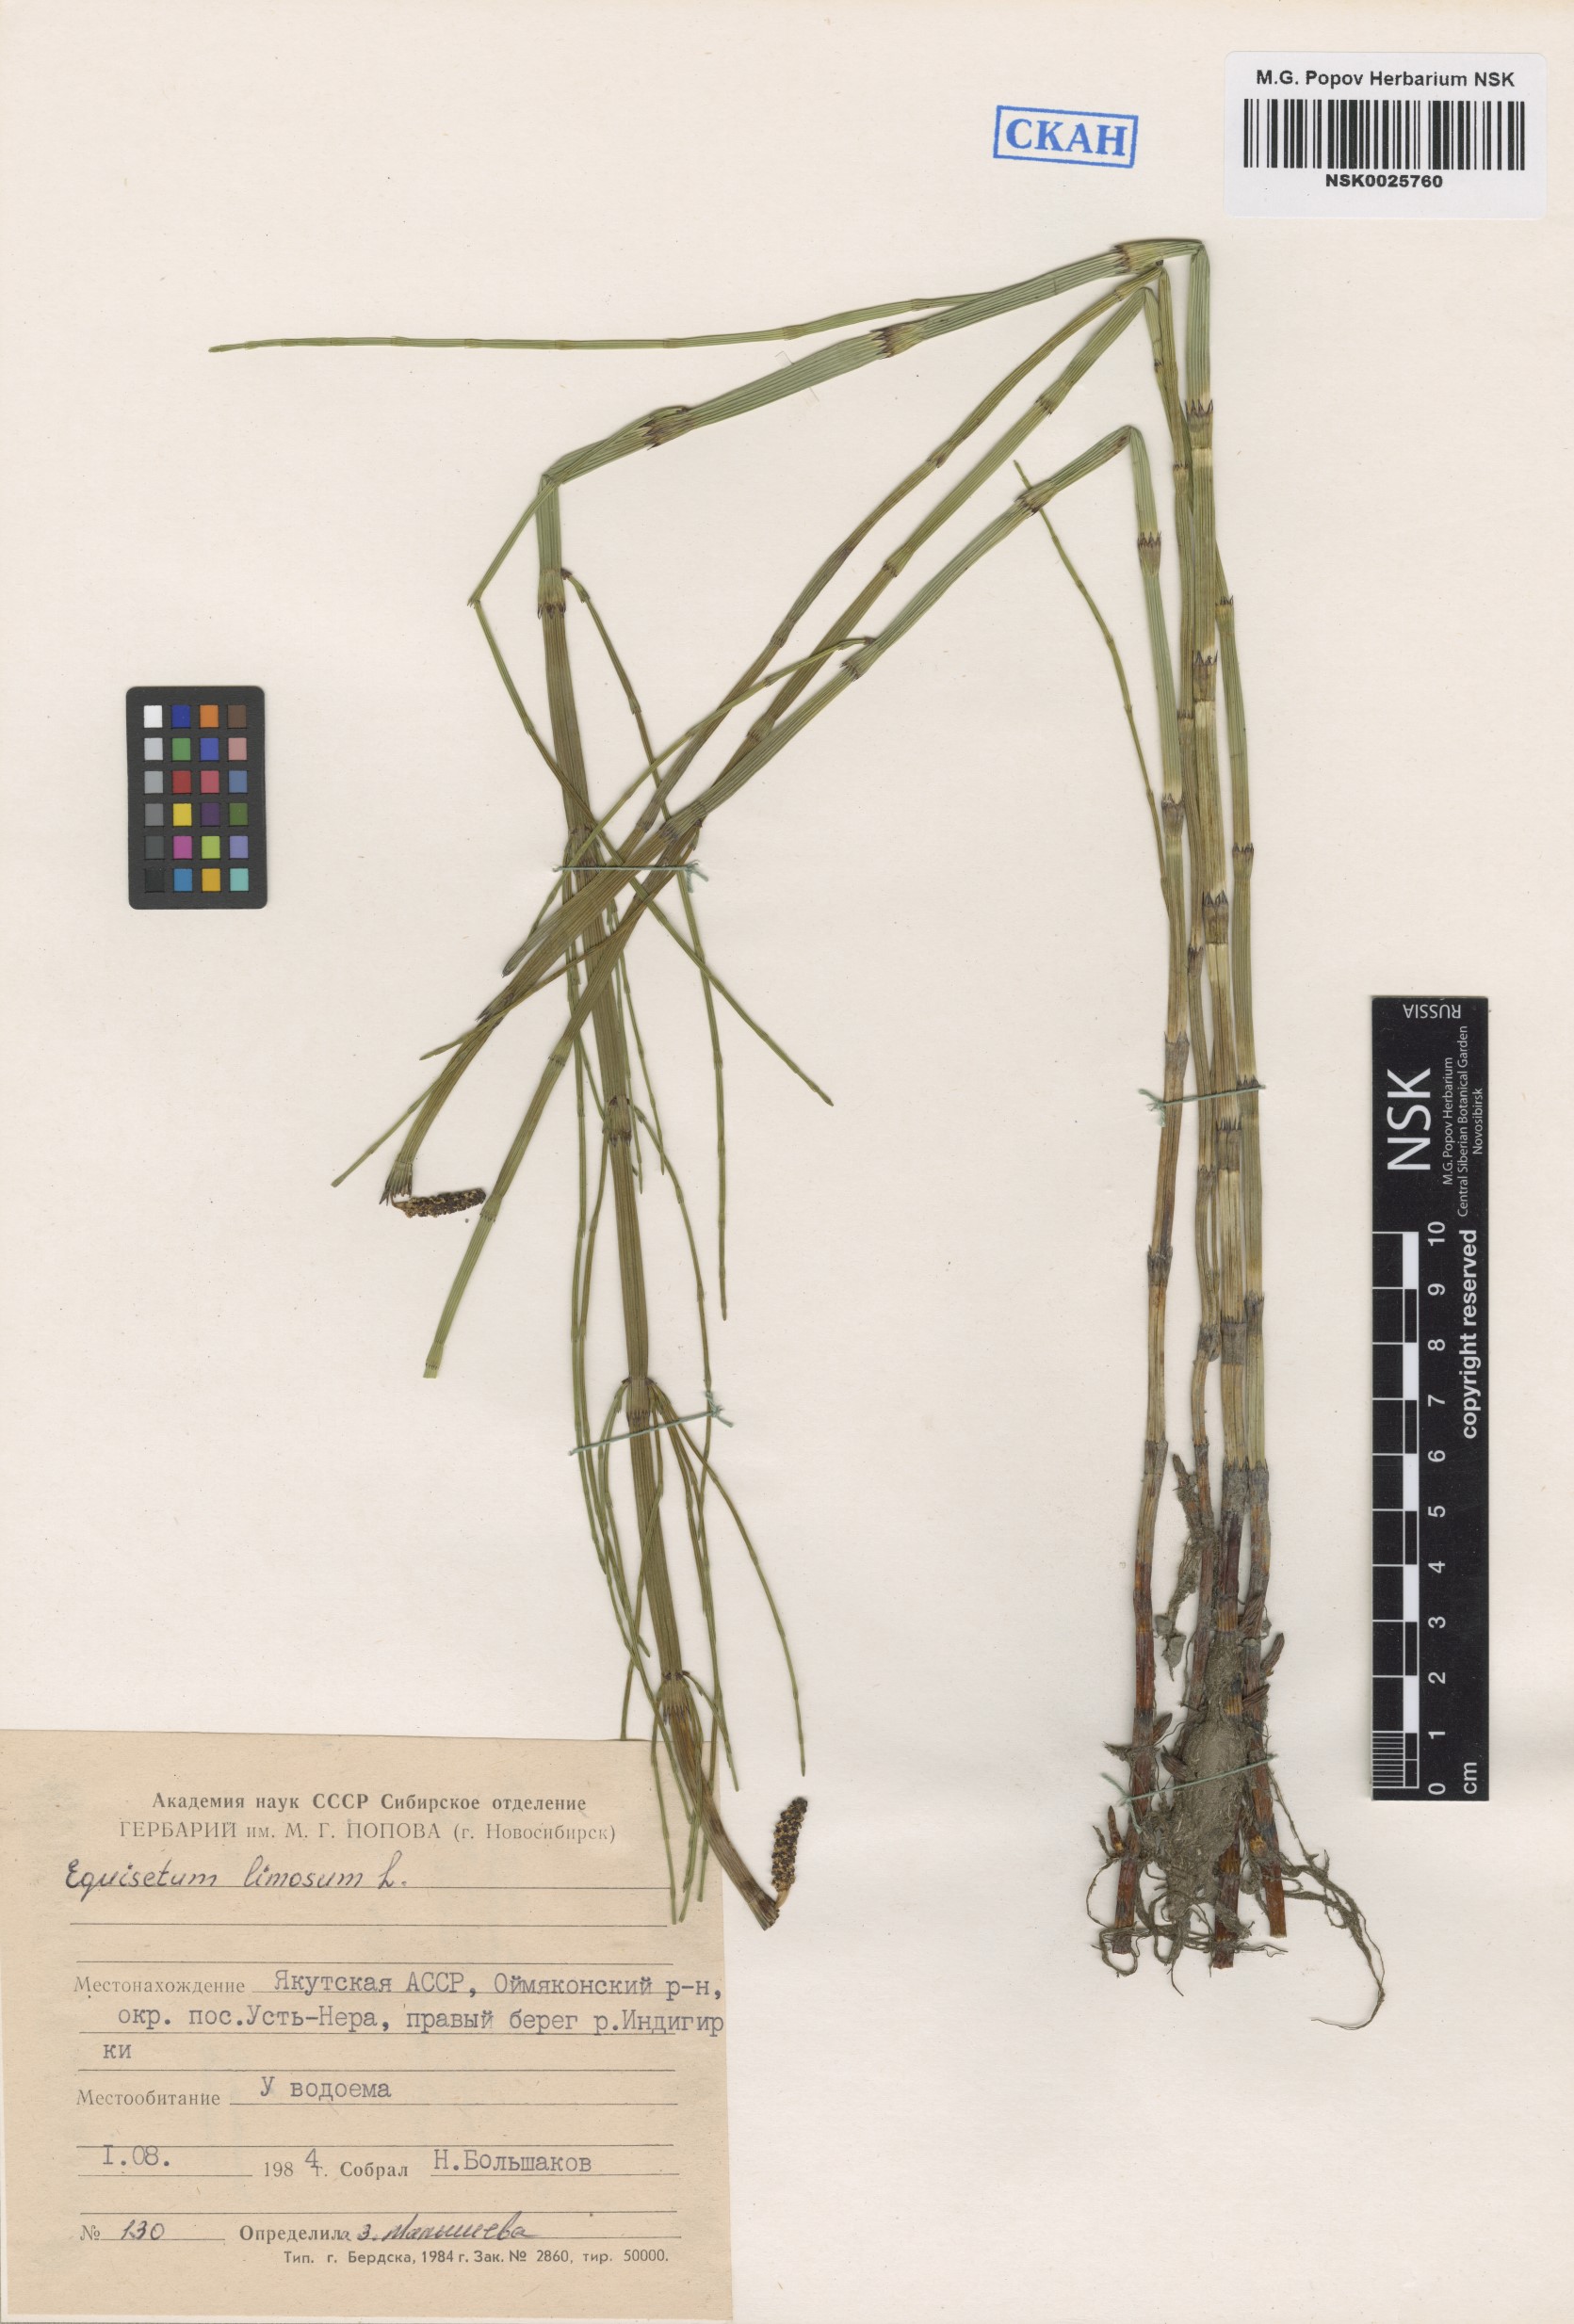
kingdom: Plantae
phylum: Tracheophyta
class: Polypodiopsida
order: Equisetales
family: Equisetaceae
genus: Equisetum
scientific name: Equisetum fluviatile
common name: Water horsetail
